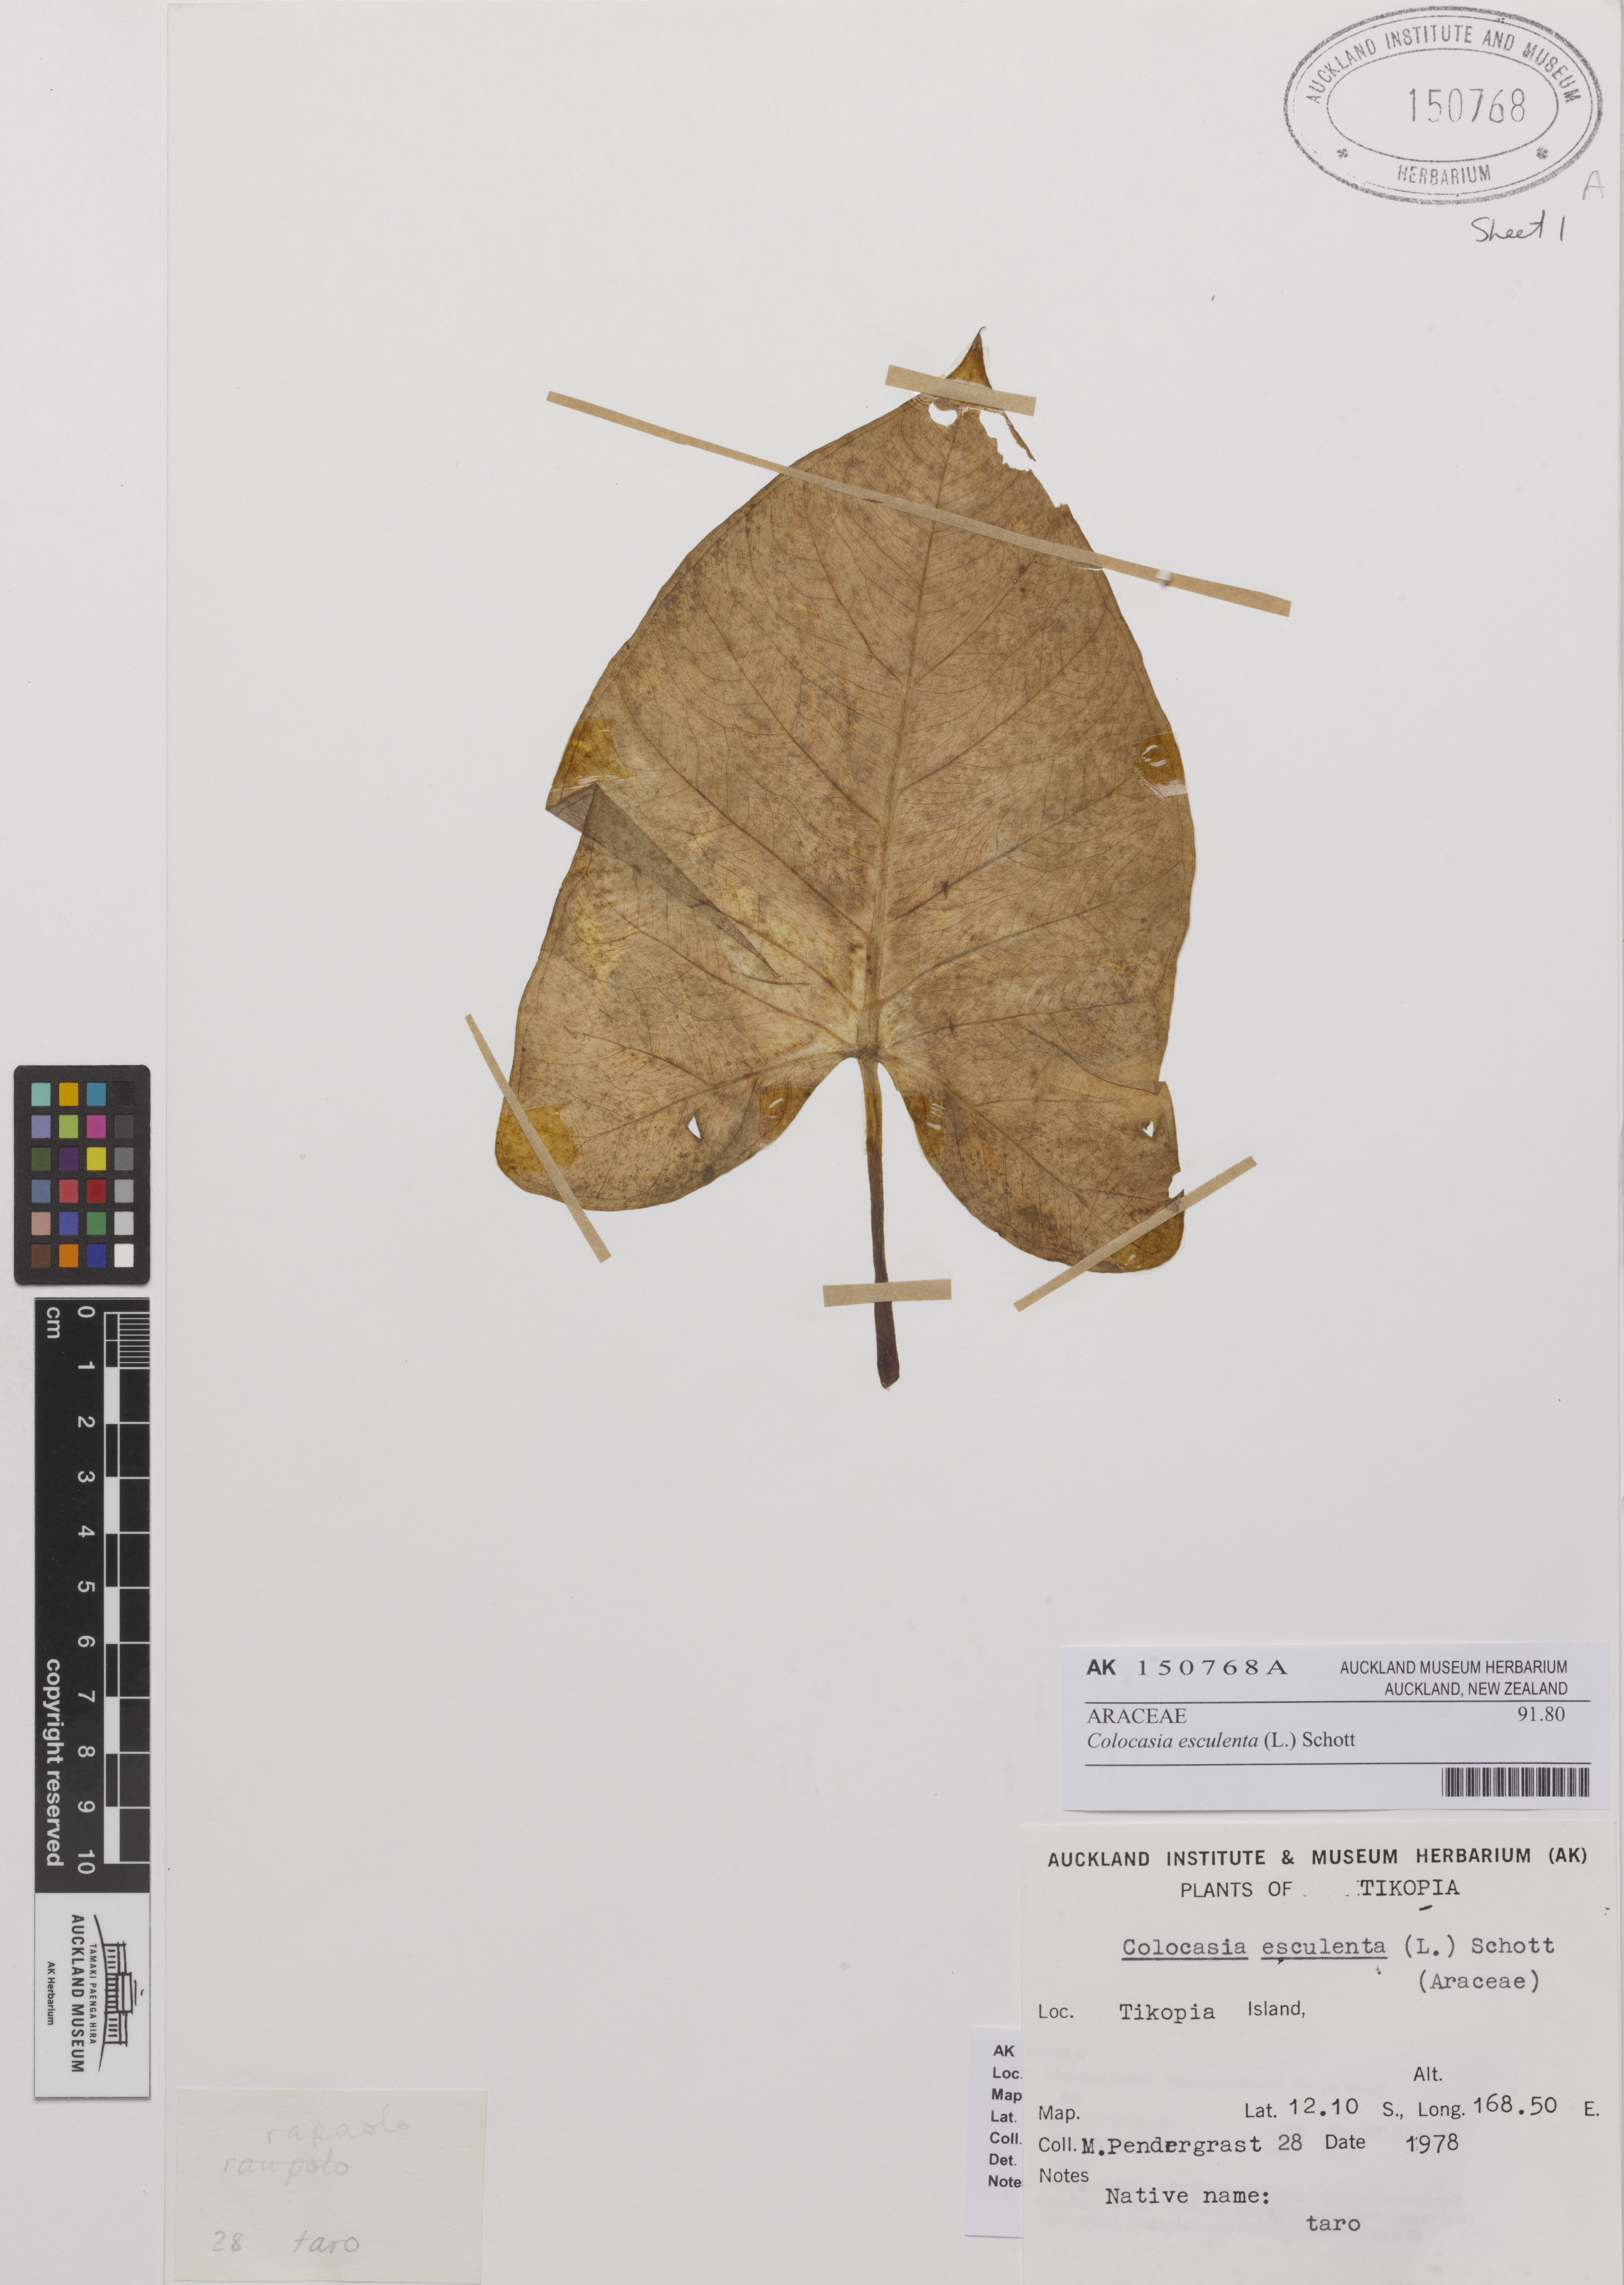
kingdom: Plantae
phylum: Tracheophyta
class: Liliopsida
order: Alismatales
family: Araceae
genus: Colocasia
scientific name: Colocasia esculenta
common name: Taro
